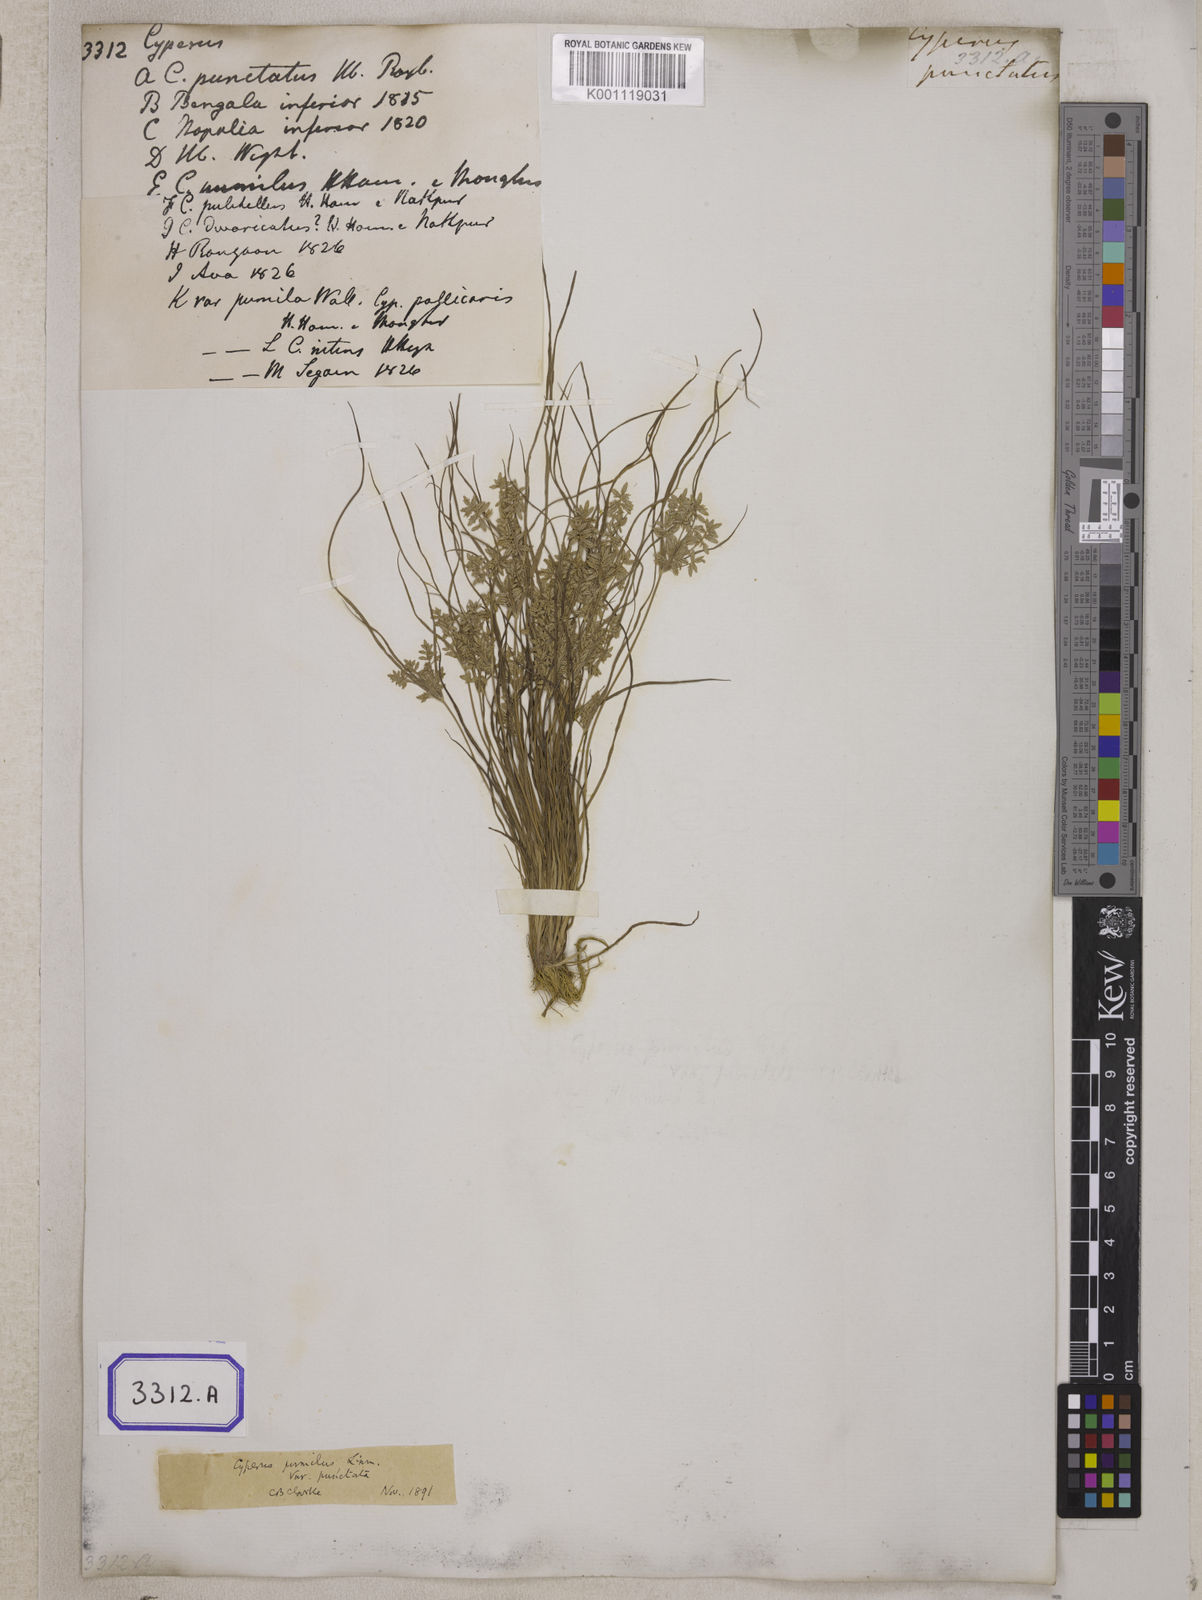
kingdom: Plantae
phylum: Tracheophyta
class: Liliopsida
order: Poales
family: Cyperaceae
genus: Cyperus
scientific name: Cyperus
